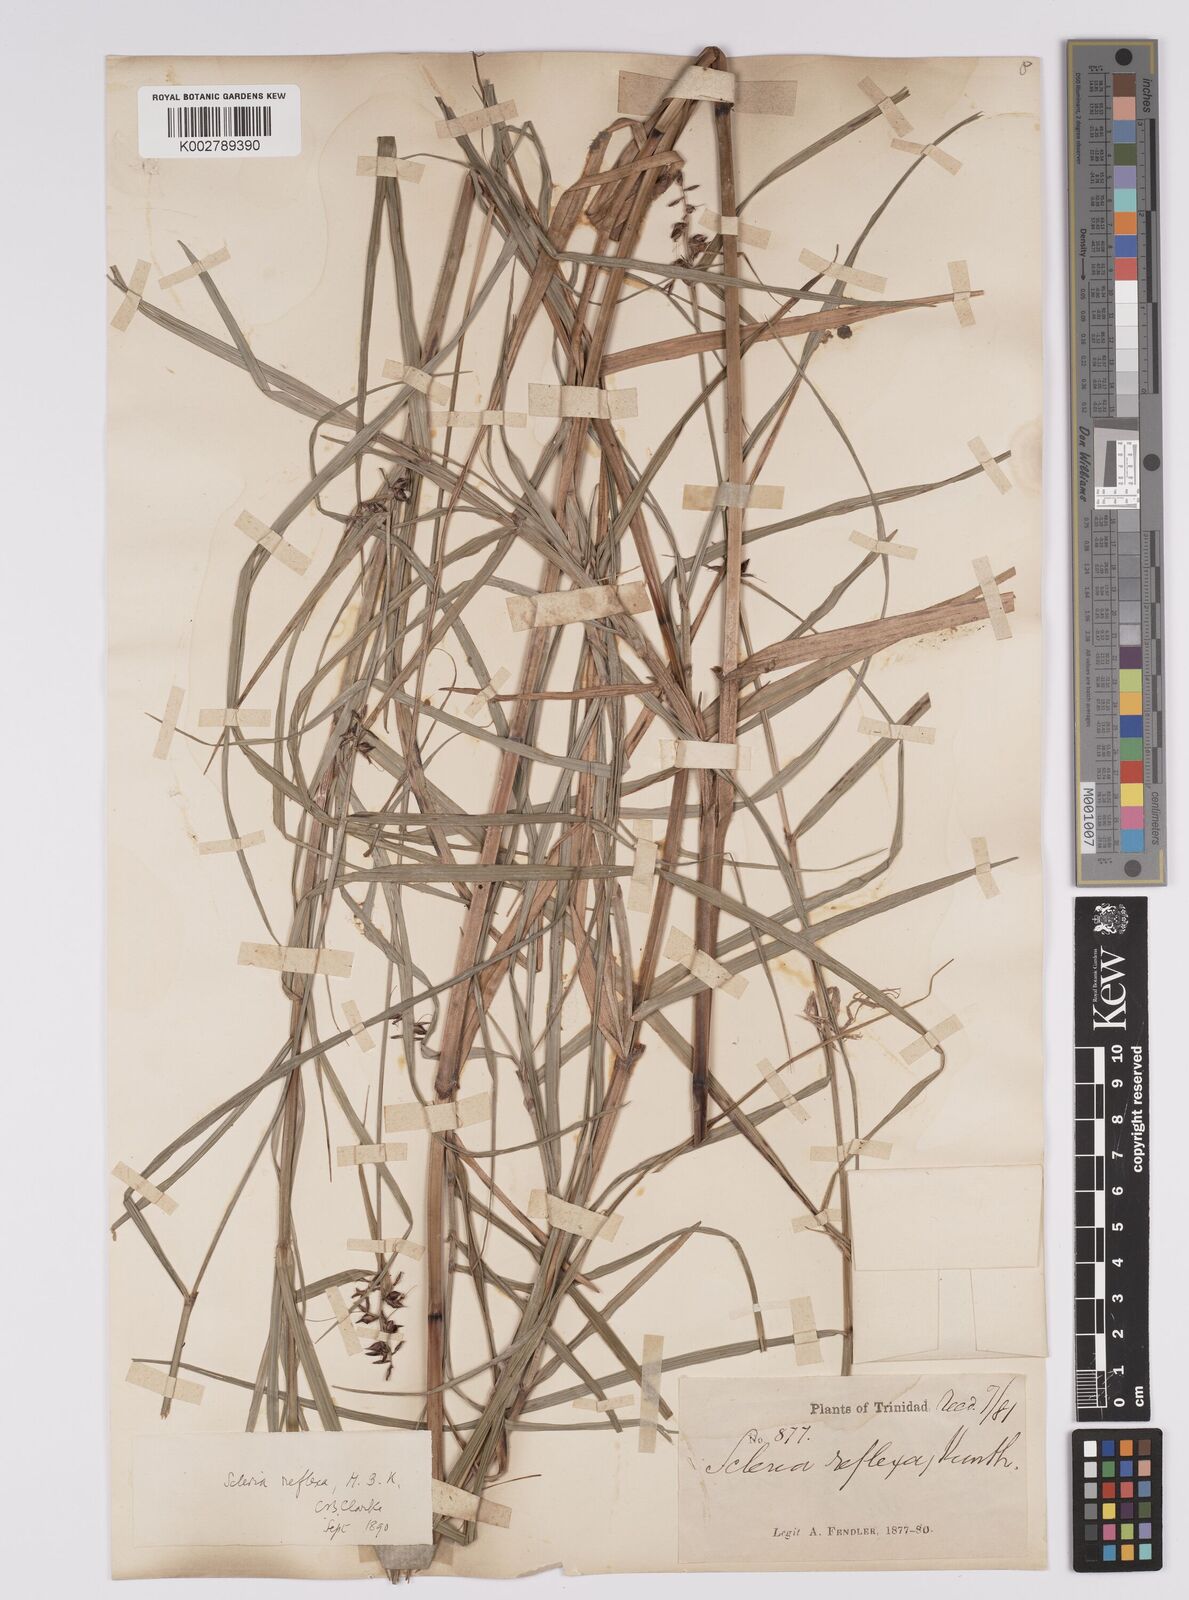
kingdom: Plantae
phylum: Tracheophyta
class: Liliopsida
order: Poales
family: Cyperaceae
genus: Scleria
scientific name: Scleria secans
